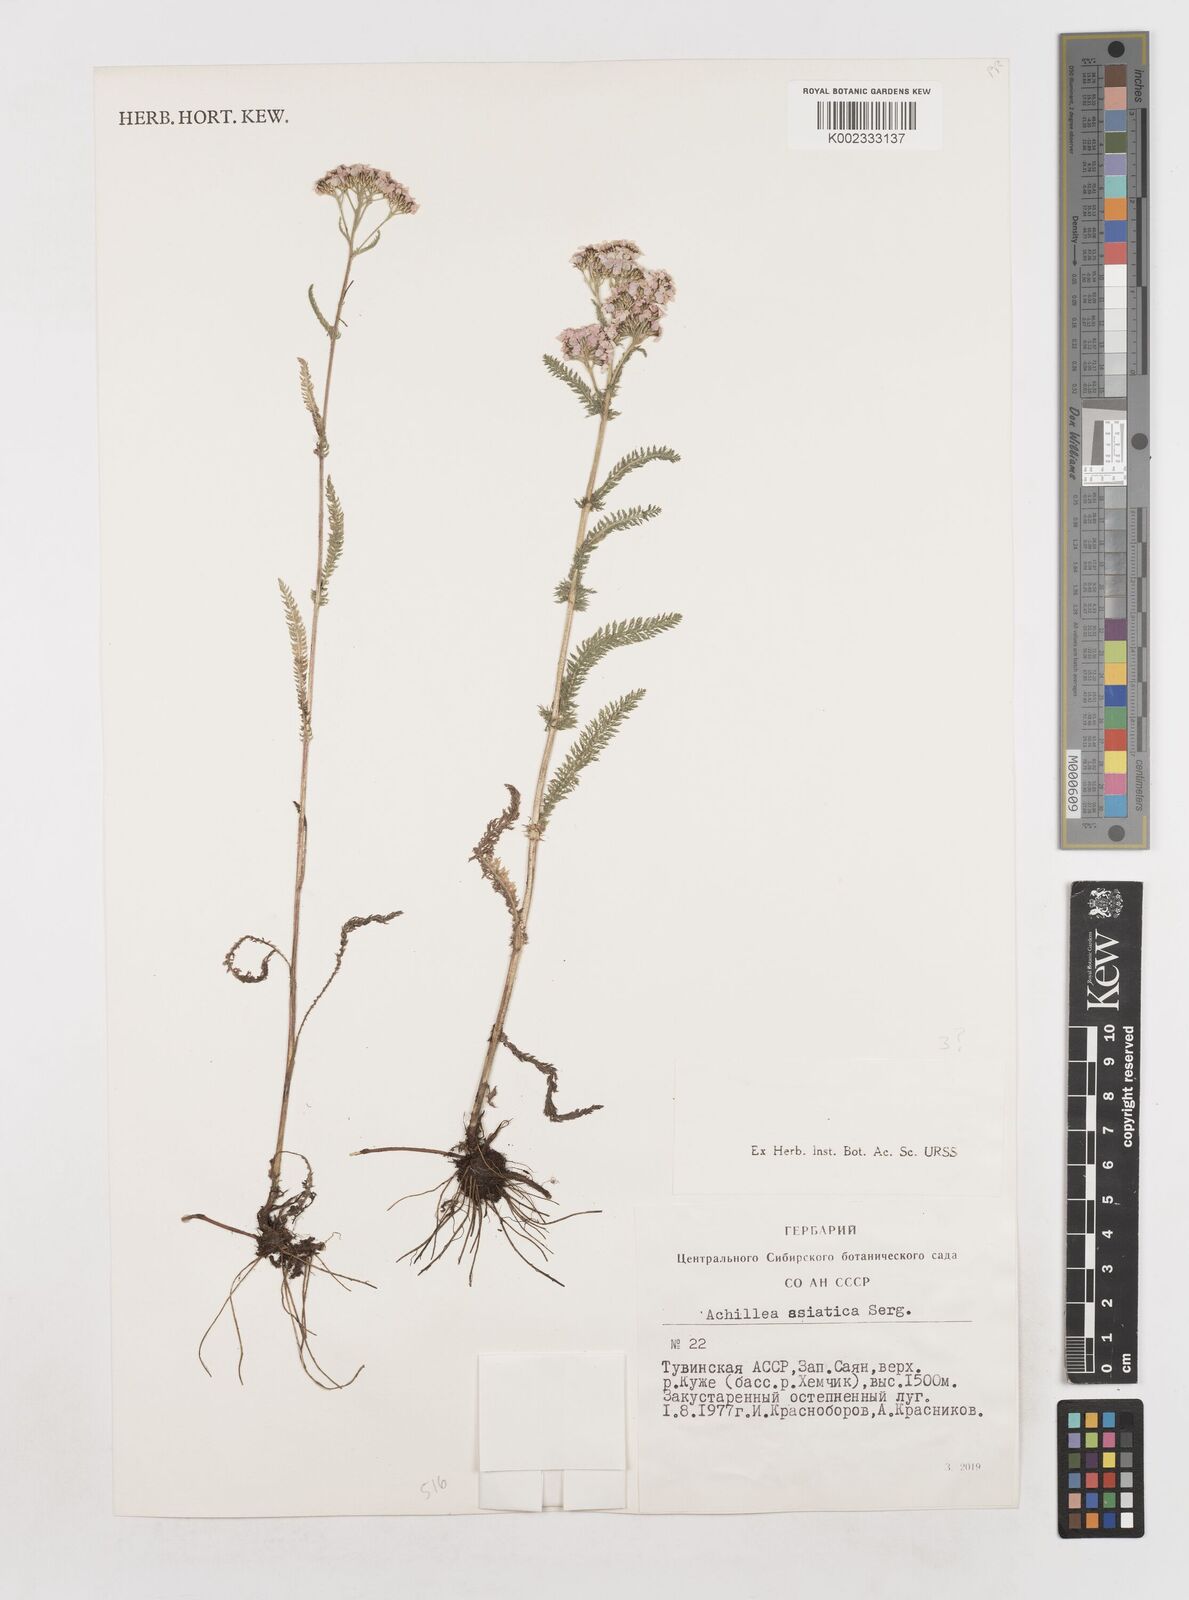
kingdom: Plantae
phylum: Tracheophyta
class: Magnoliopsida
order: Asterales
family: Asteraceae
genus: Achillea
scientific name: Achillea asiatica
